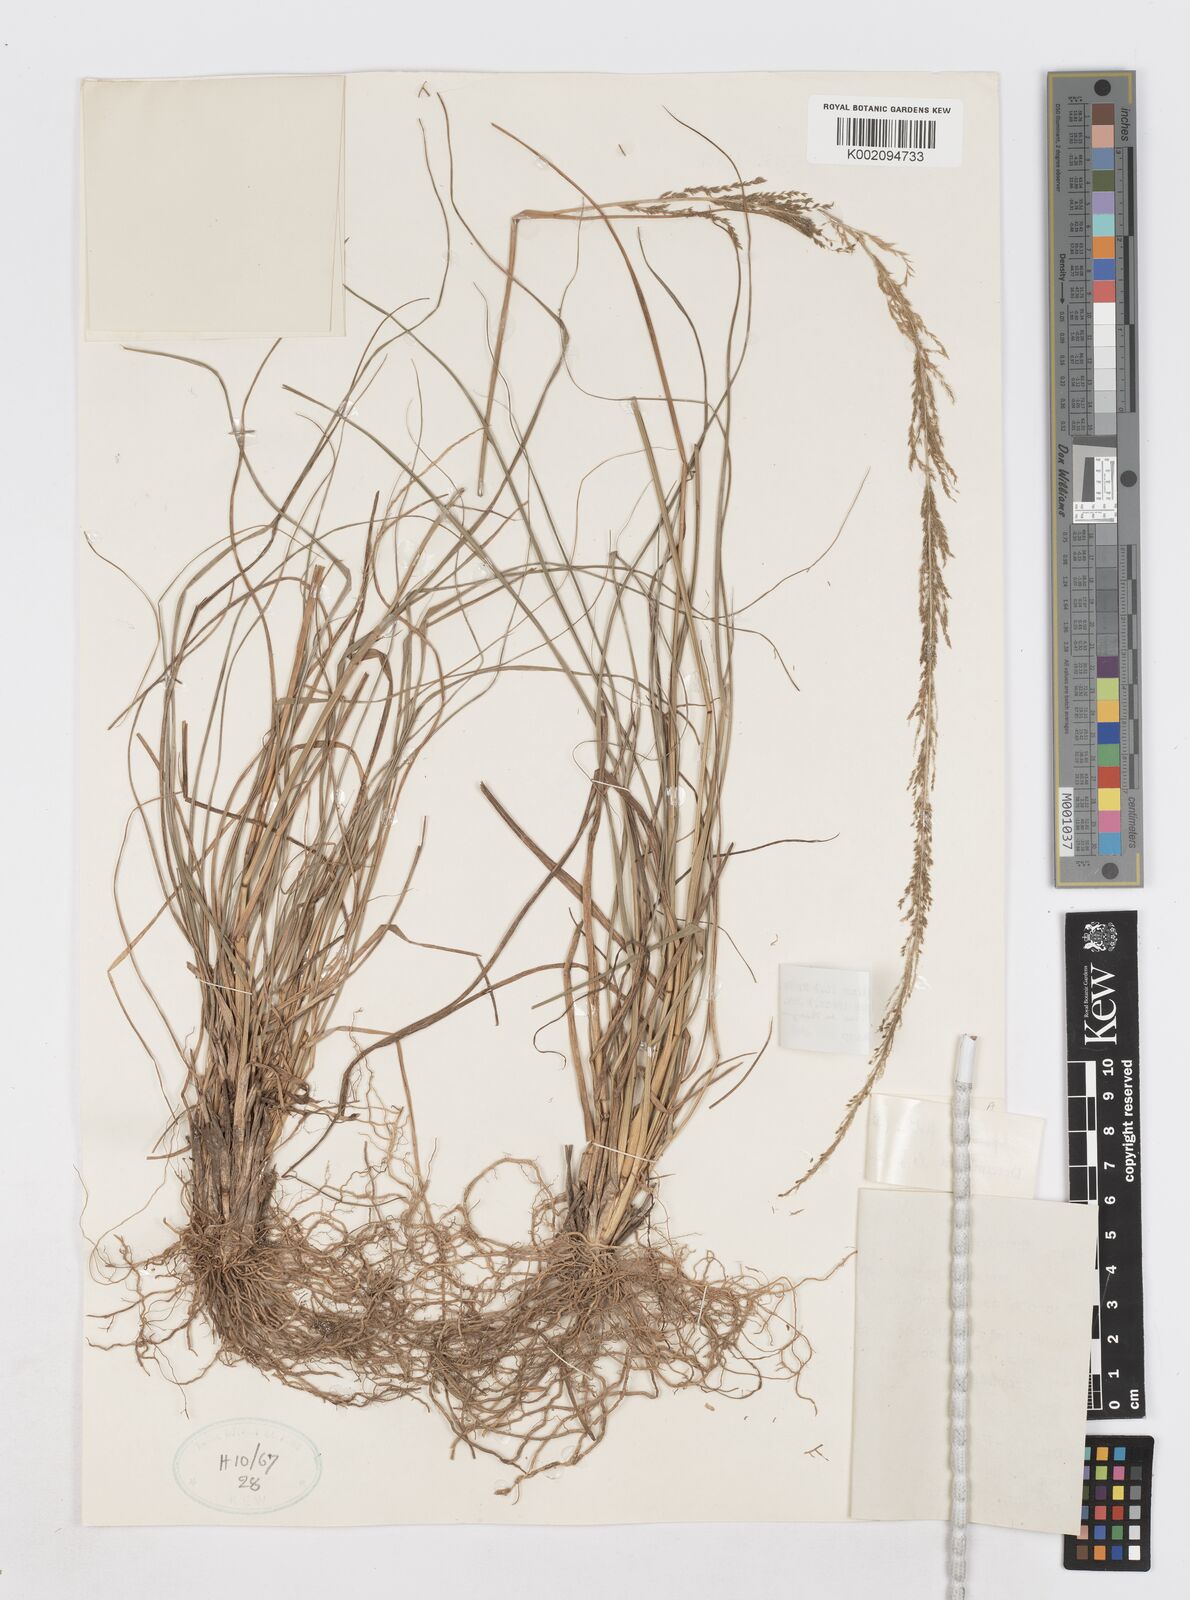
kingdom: Plantae
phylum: Tracheophyta
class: Liliopsida
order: Poales
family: Poaceae
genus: Sporobolus
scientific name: Sporobolus diandrus
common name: Tussock dropseed
